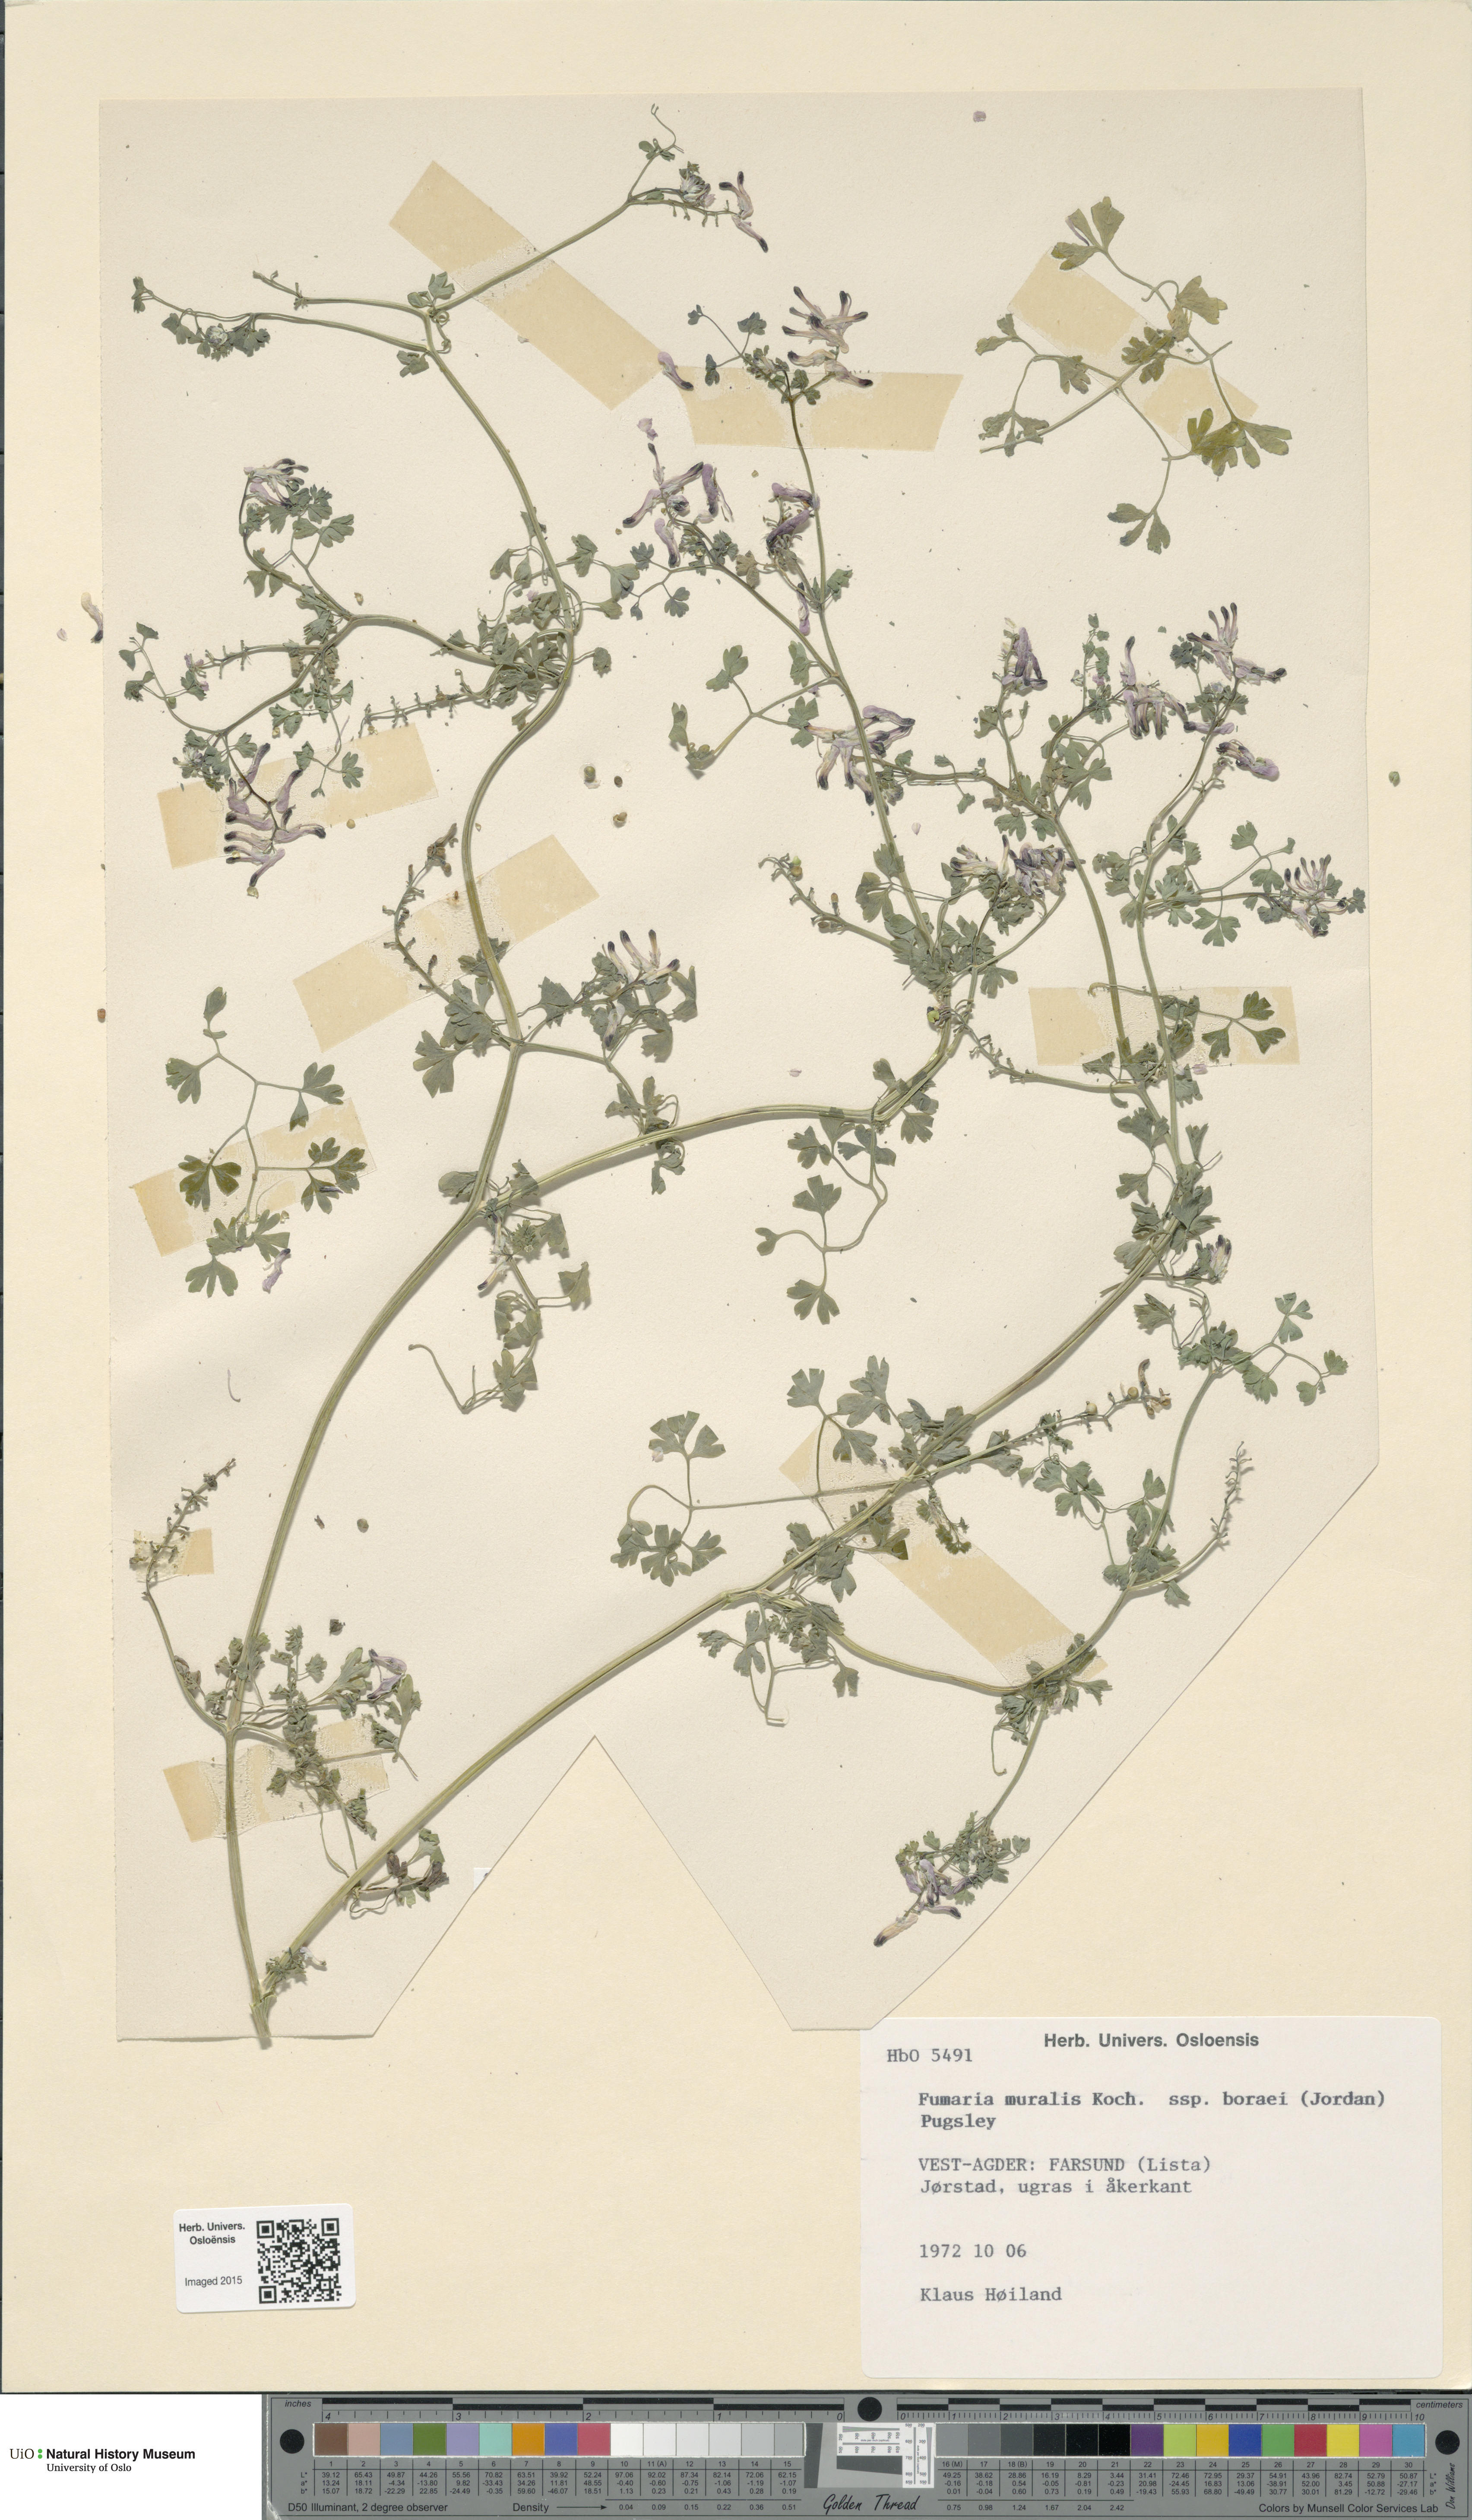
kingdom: Plantae
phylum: Tracheophyta
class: Magnoliopsida
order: Ranunculales
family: Papaveraceae
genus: Fumaria
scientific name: Fumaria muralis
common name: Common ramping-fumitory
